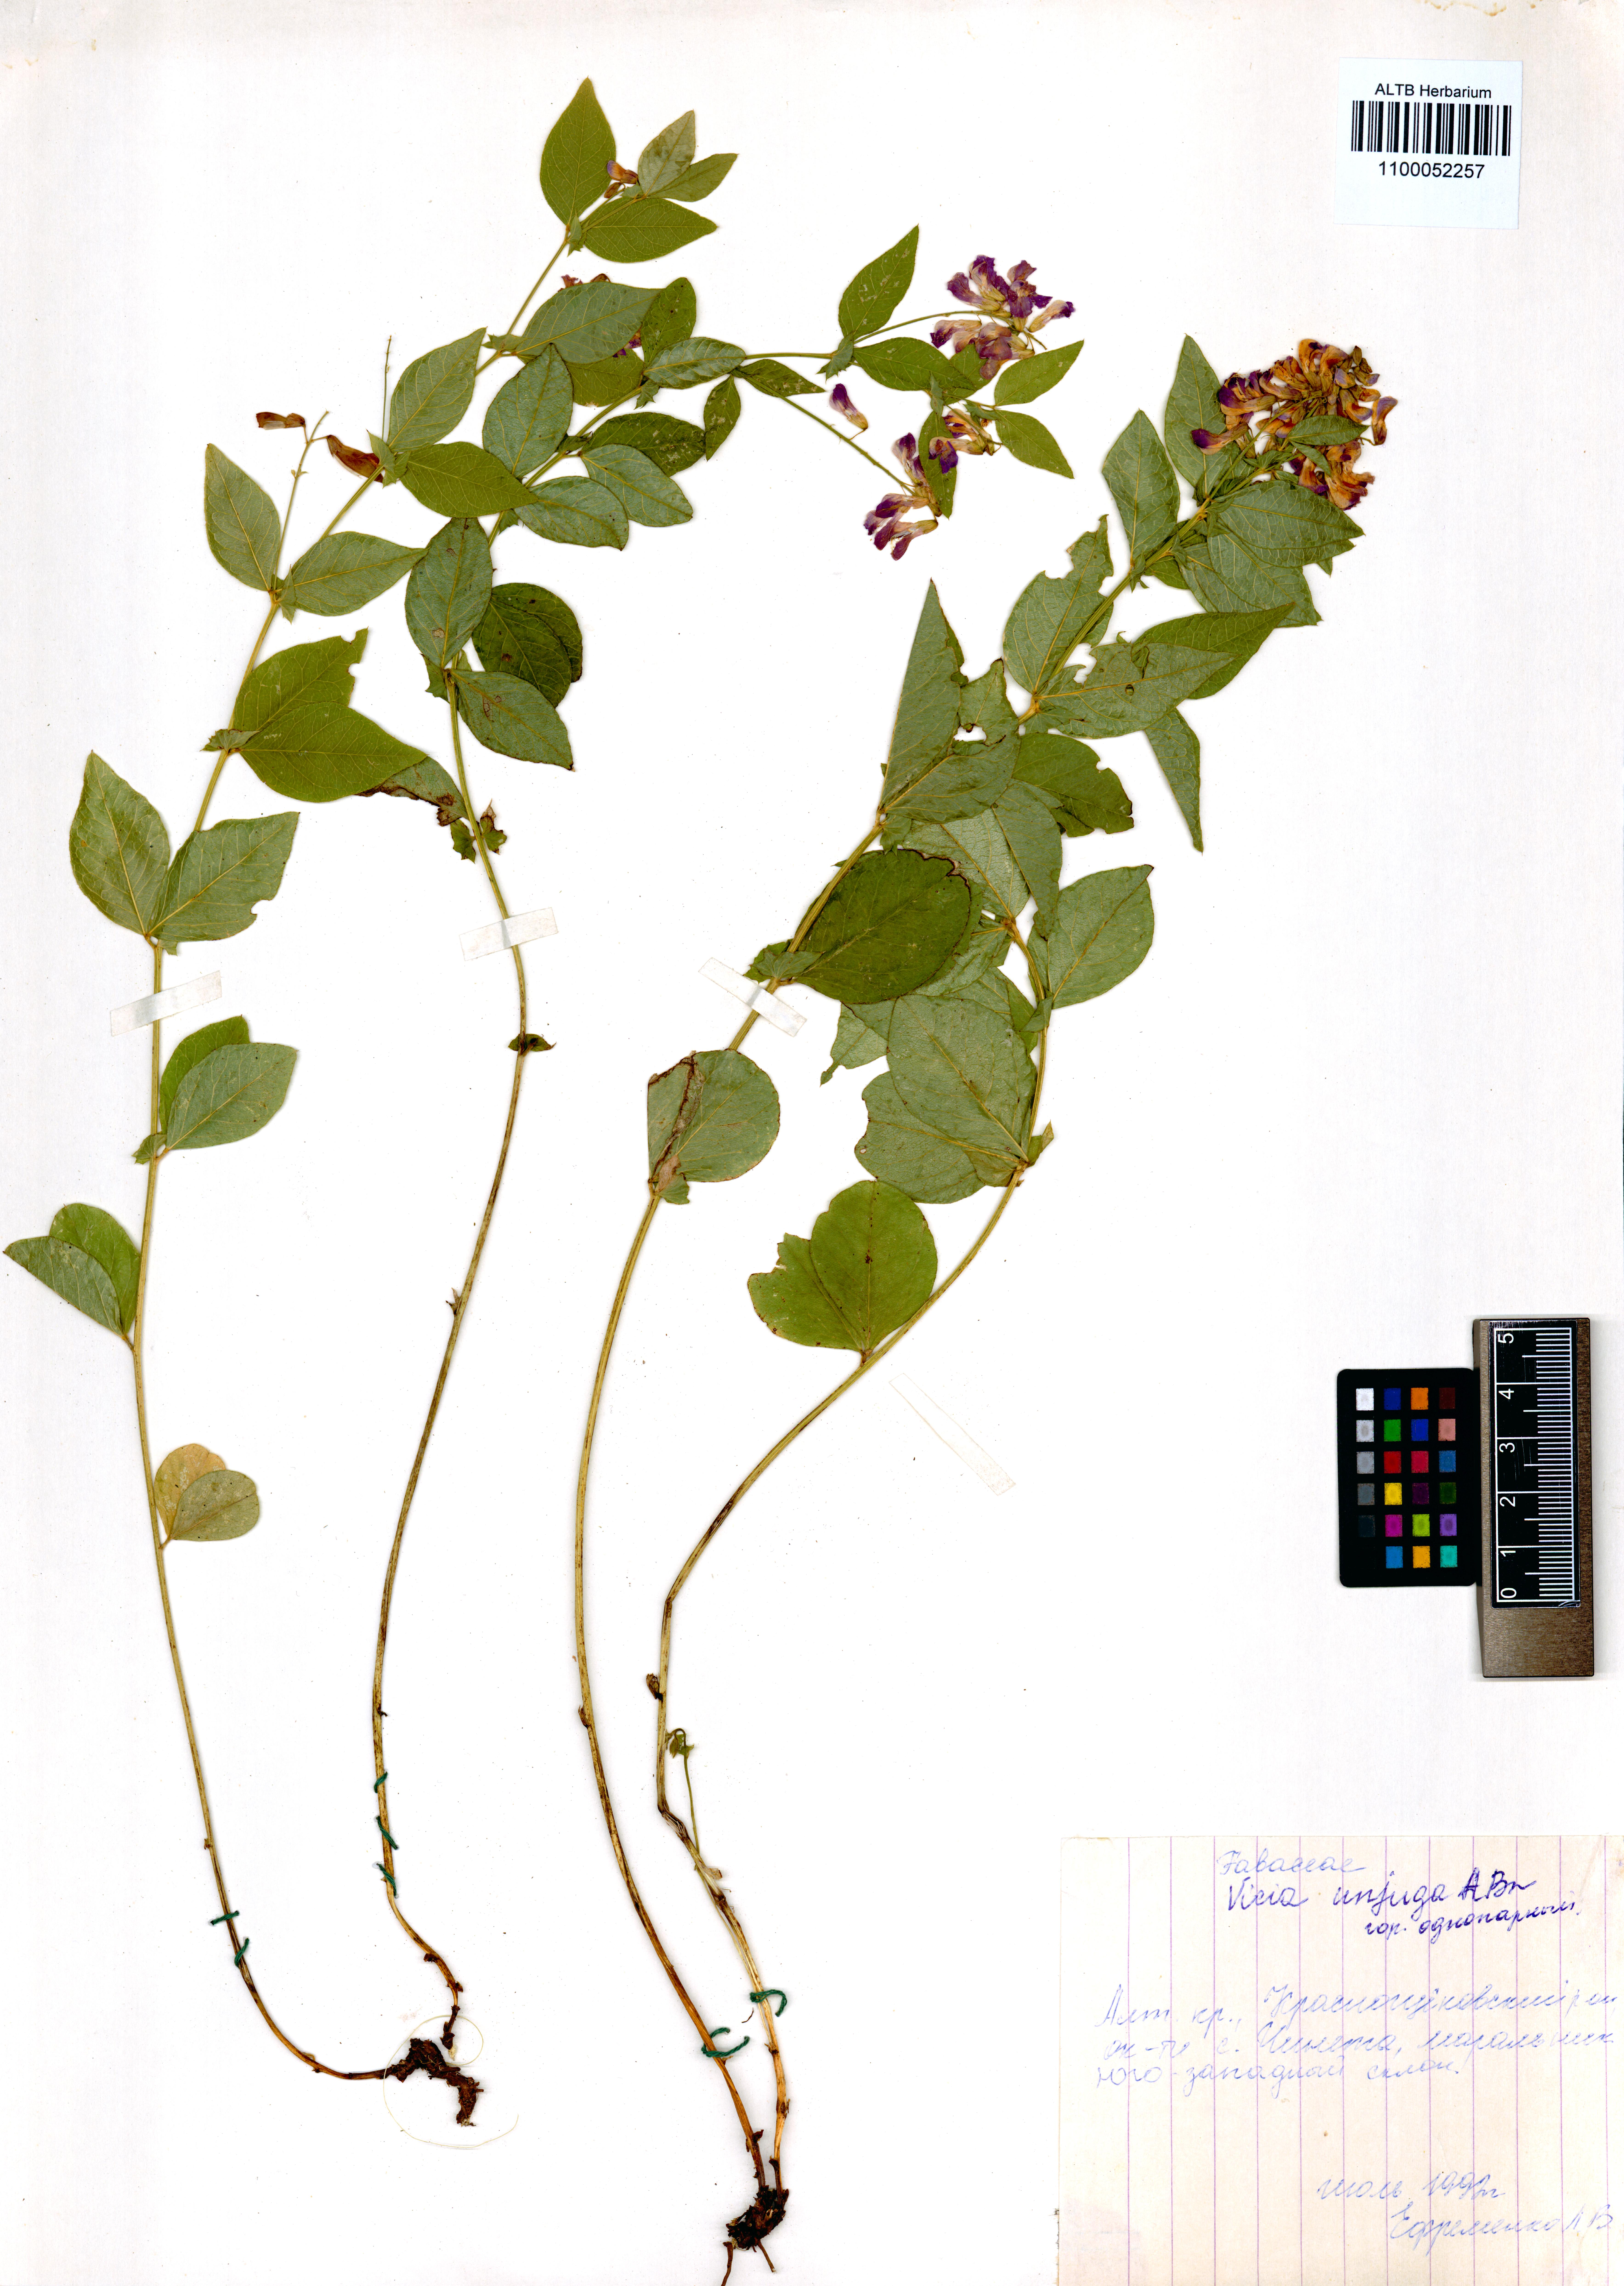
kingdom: Plantae
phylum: Tracheophyta
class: Magnoliopsida
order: Fabales
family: Fabaceae
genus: Vicia
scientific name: Vicia unijuga
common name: Two-leaf vetch
